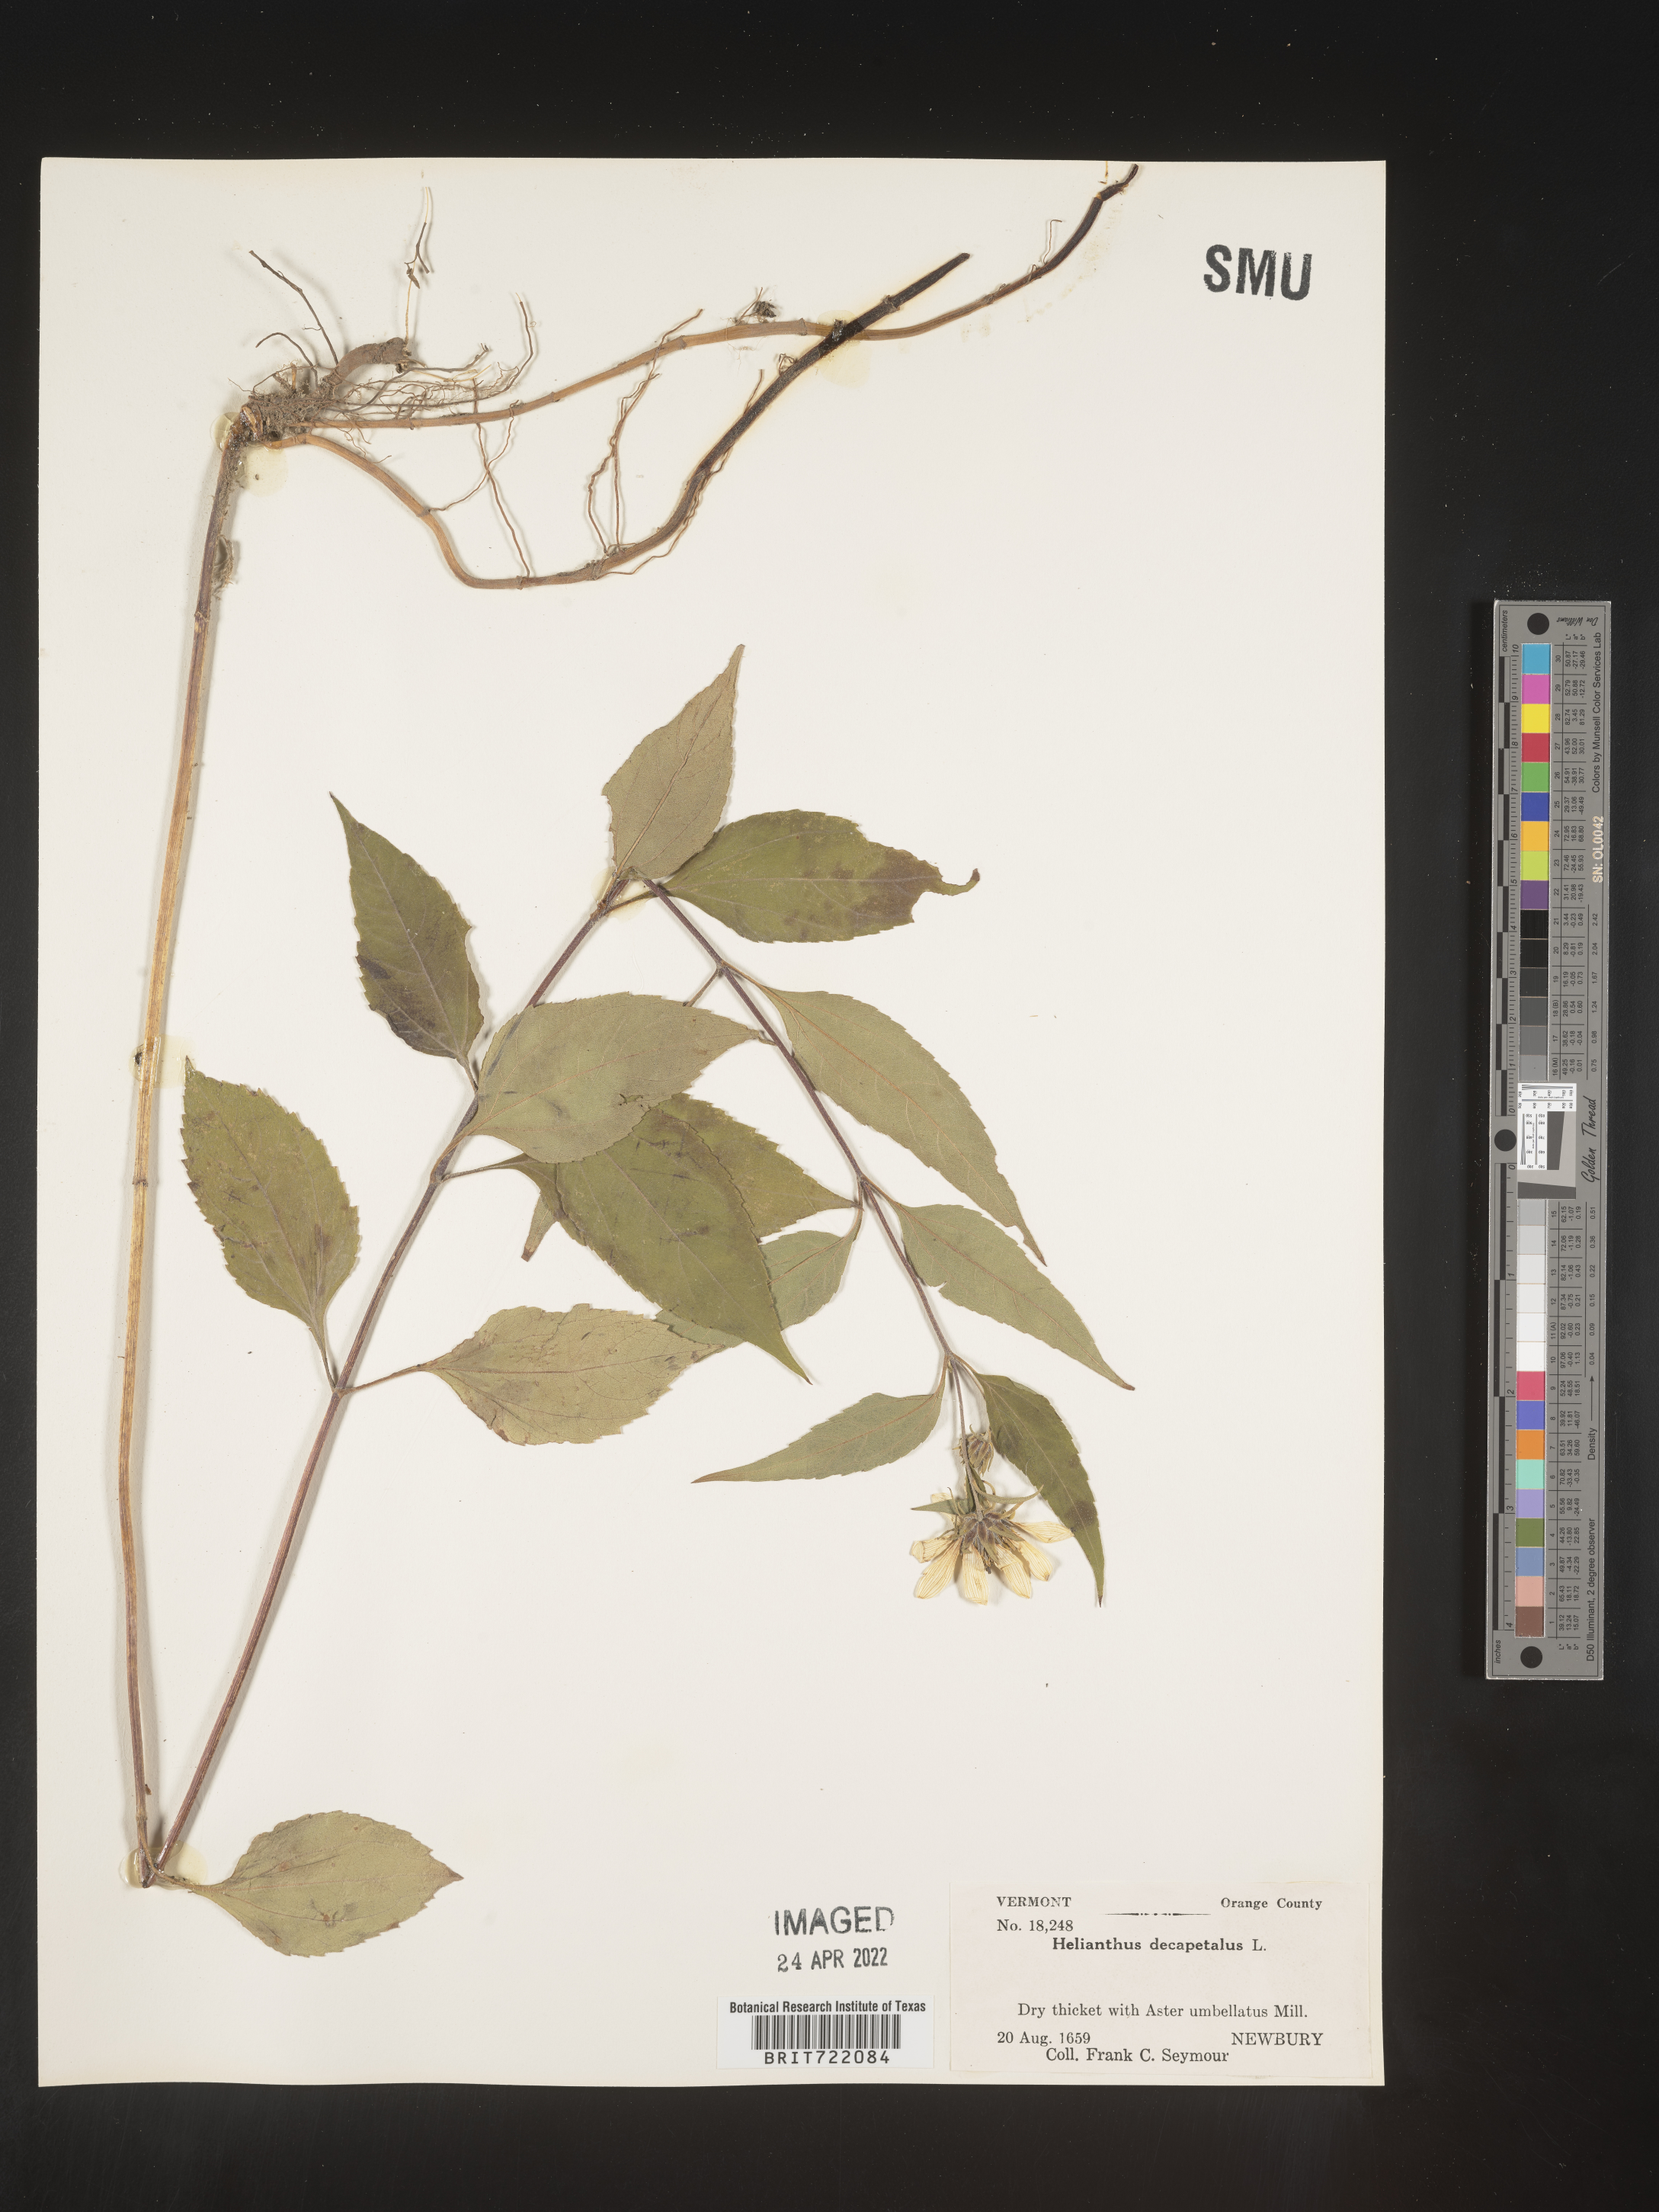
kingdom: Plantae
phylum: Tracheophyta
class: Magnoliopsida
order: Asterales
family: Asteraceae
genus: Helianthus
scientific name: Helianthus decapetalus
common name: Thin-leaved sunflower
